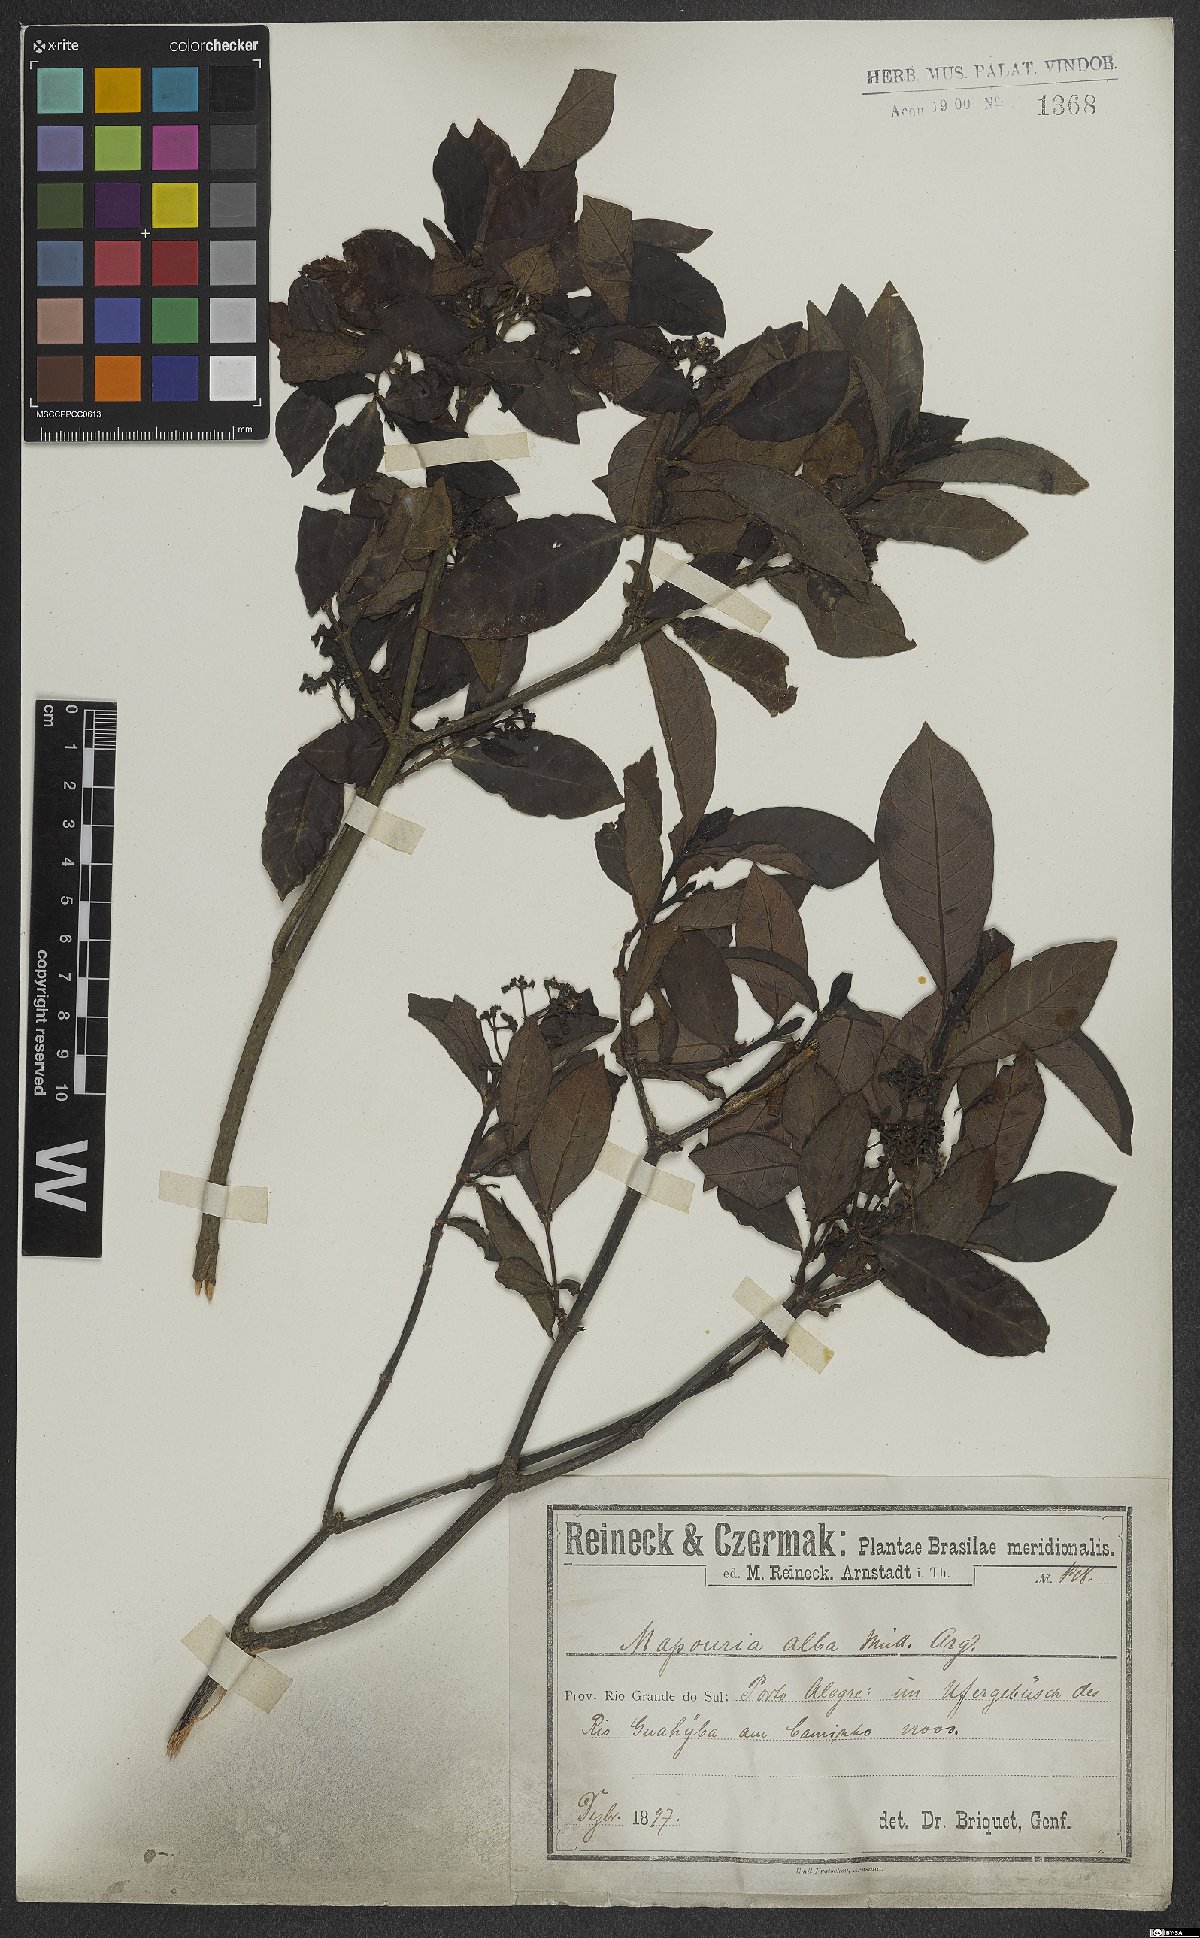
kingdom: Plantae
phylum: Tracheophyta
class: Magnoliopsida
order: Gentianales
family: Rubiaceae
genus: Psychotria
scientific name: Psychotria alba
